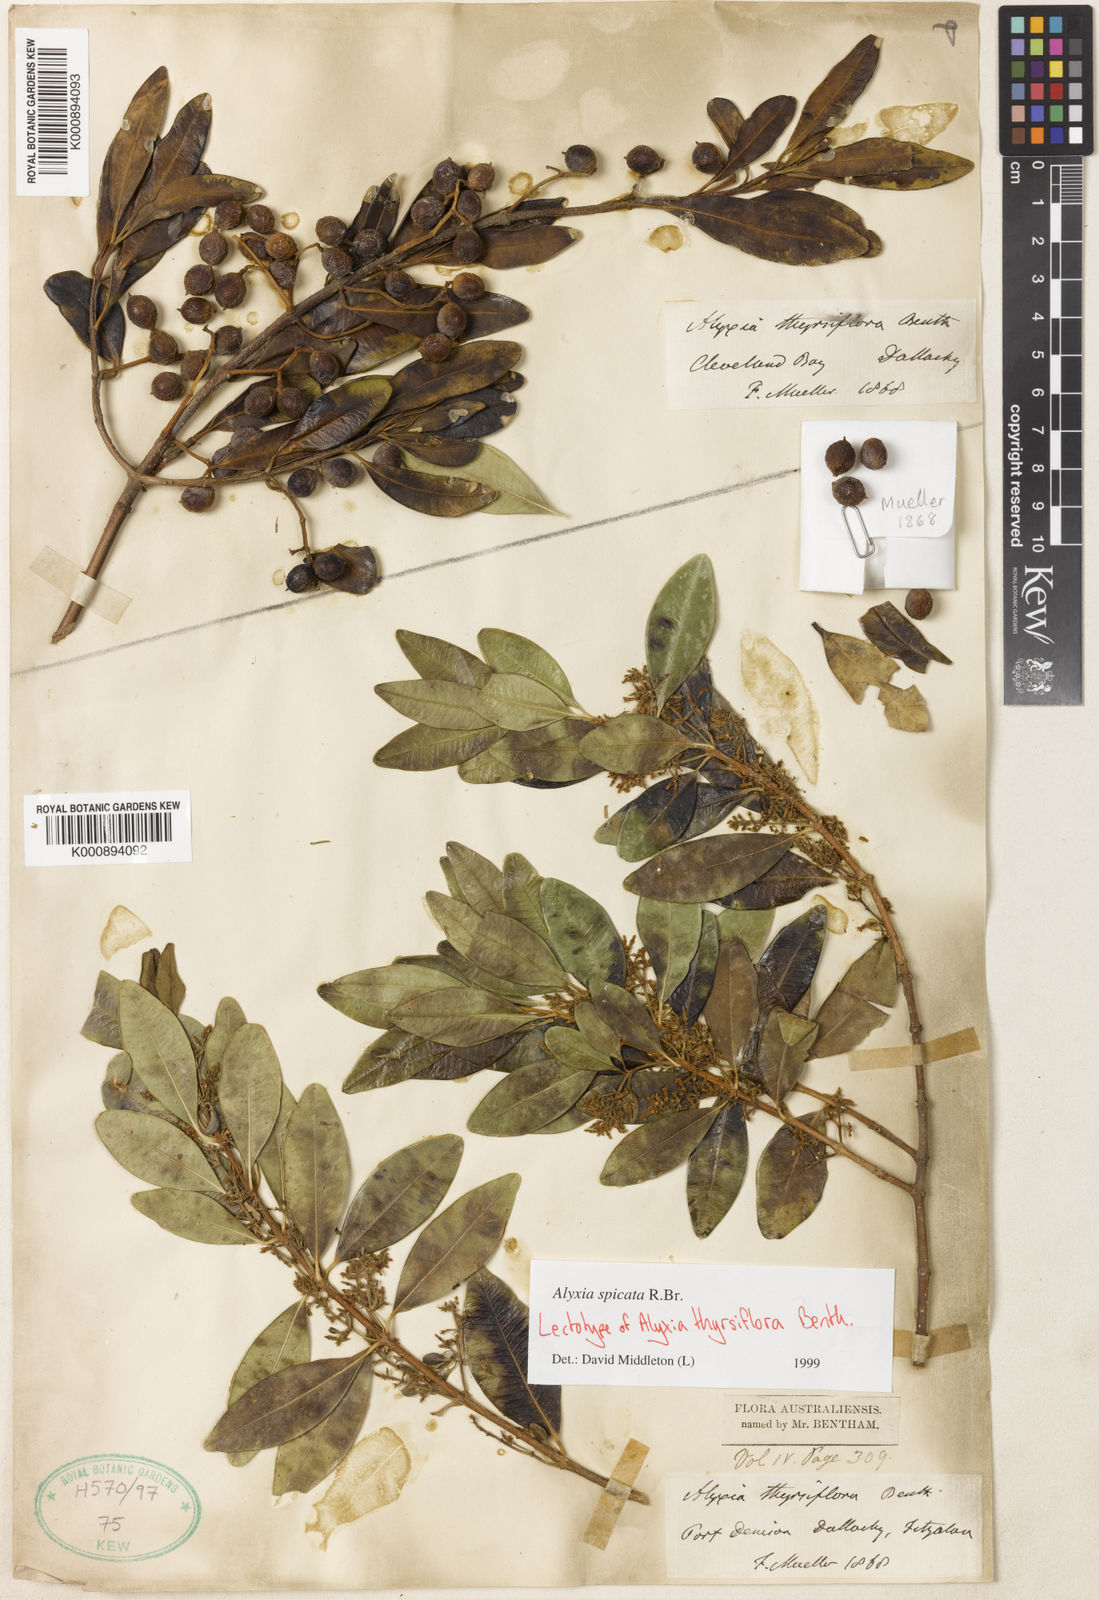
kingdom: Plantae
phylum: Tracheophyta
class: Magnoliopsida
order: Gentianales
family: Apocynaceae
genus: Alyxia
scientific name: Alyxia spicata
